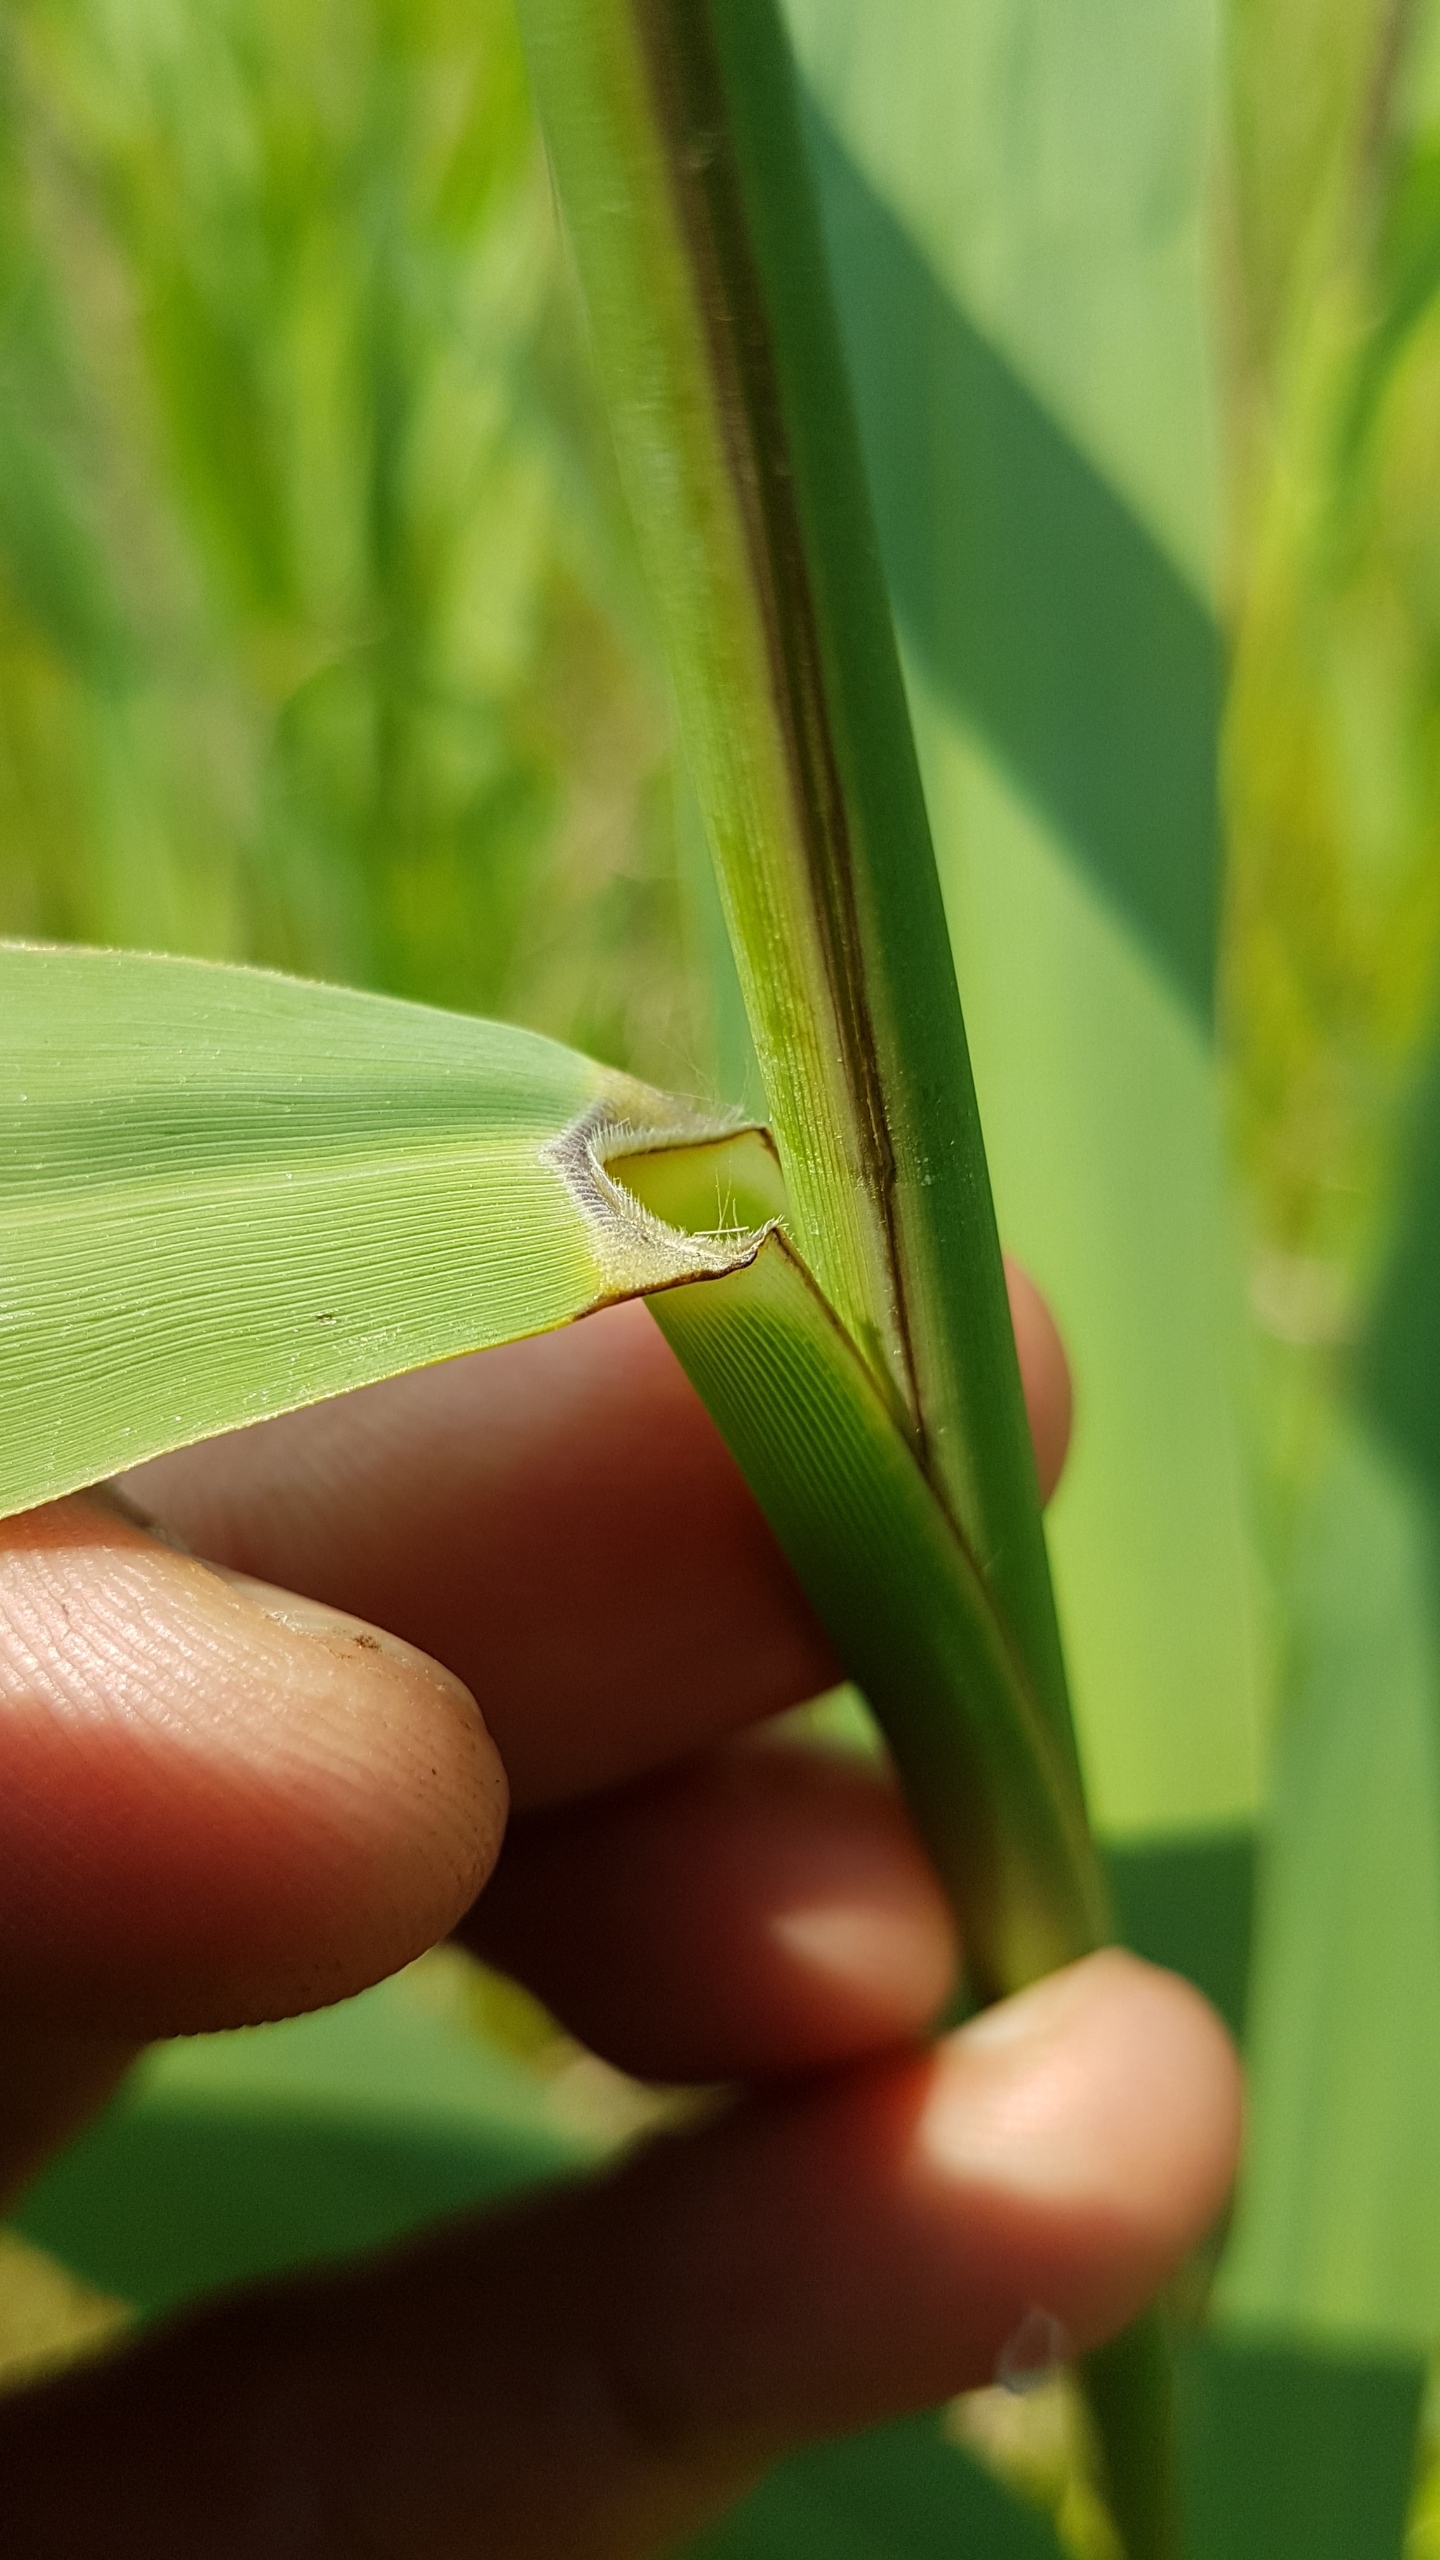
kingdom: Plantae
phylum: Tracheophyta
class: Liliopsida
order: Poales
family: Poaceae
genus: Phragmites
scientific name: Phragmites australis
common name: Tagrør
